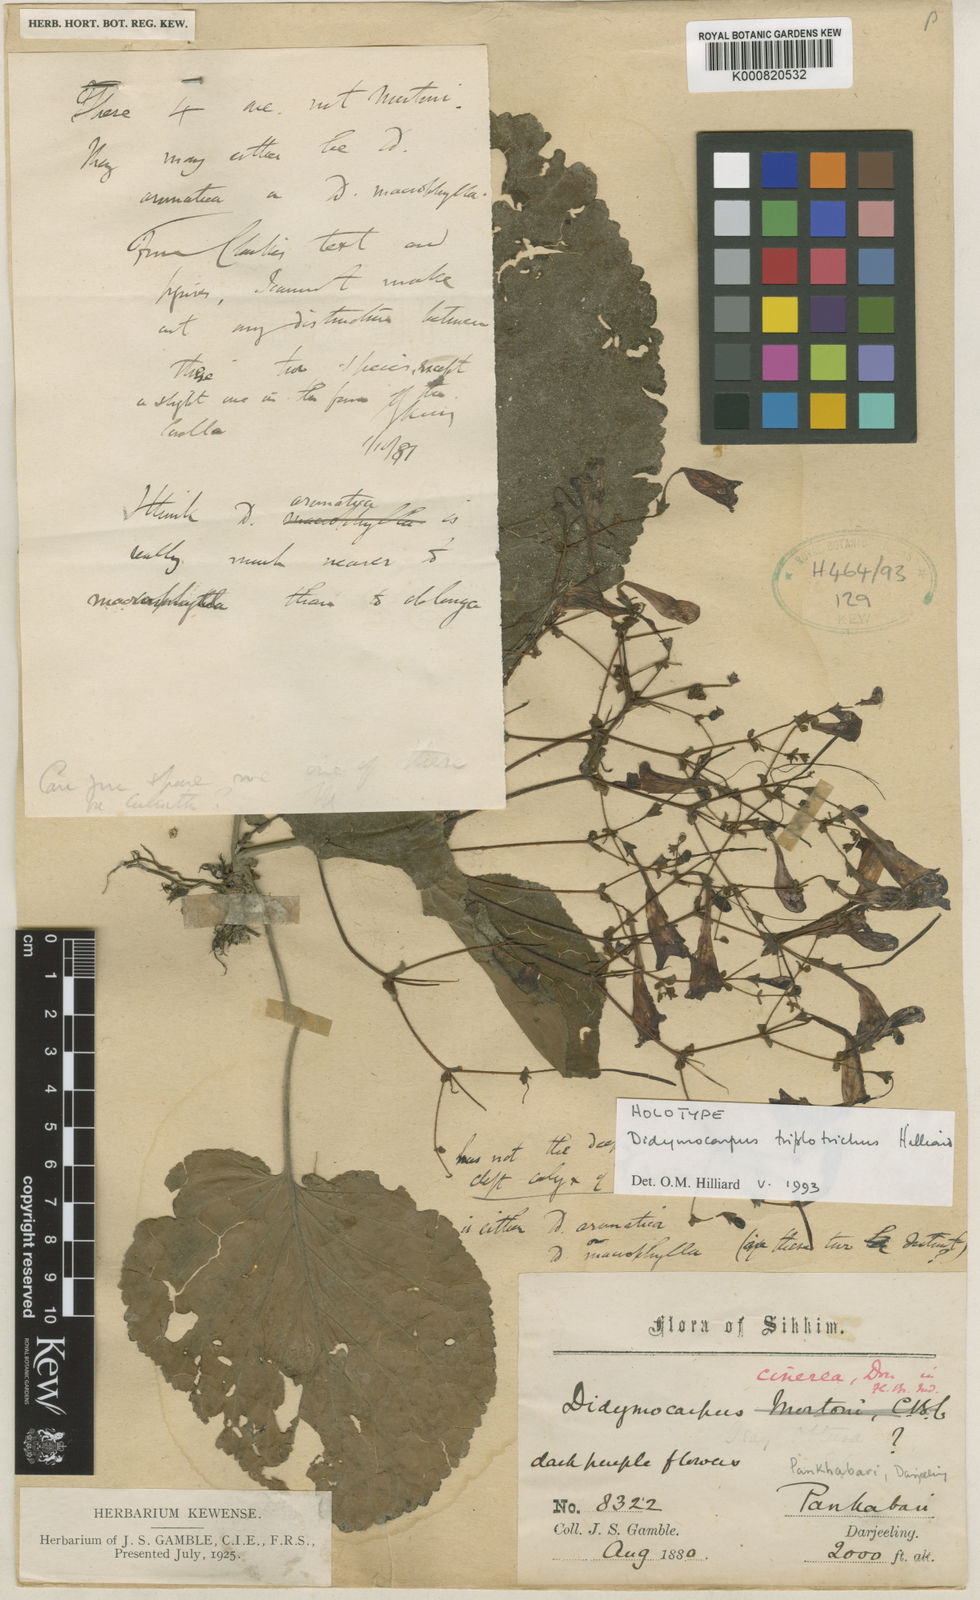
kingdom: Plantae
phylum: Tracheophyta
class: Magnoliopsida
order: Lamiales
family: Gesneriaceae
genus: Didymocarpus
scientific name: Didymocarpus triplotrichus
